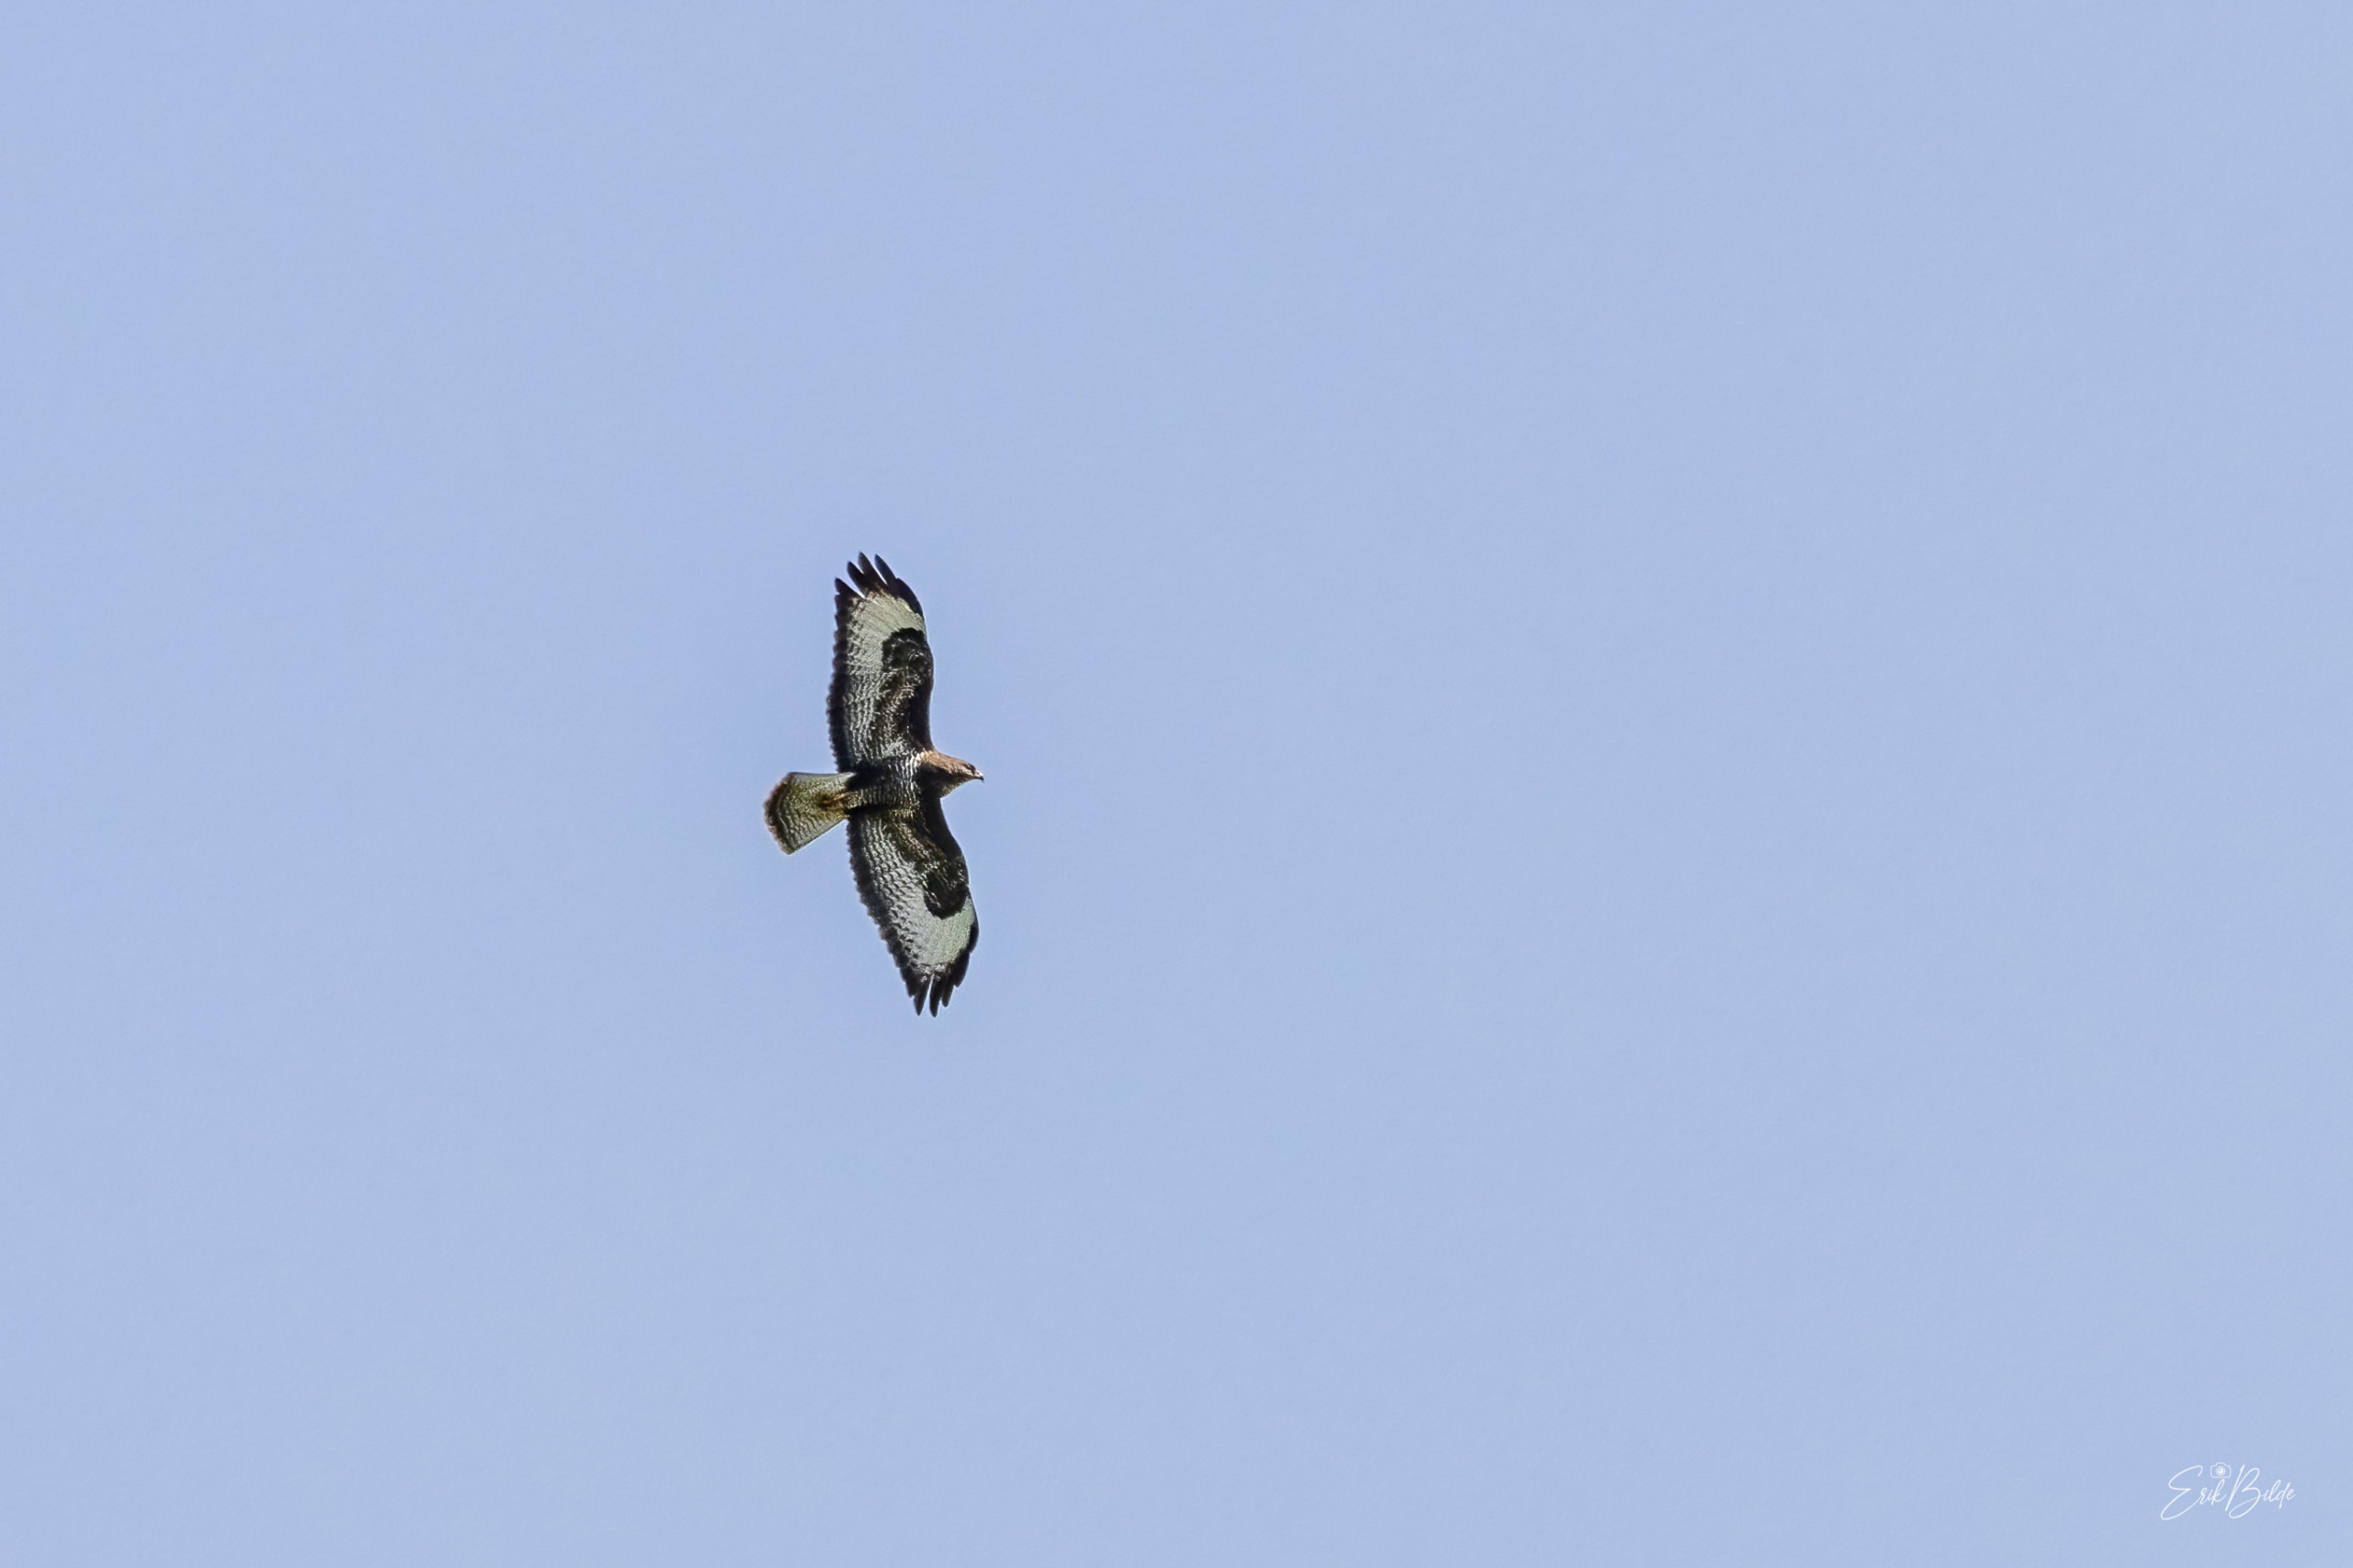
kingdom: Animalia
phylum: Chordata
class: Aves
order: Accipitriformes
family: Accipitridae
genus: Buteo
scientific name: Buteo buteo
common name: Musvåge
